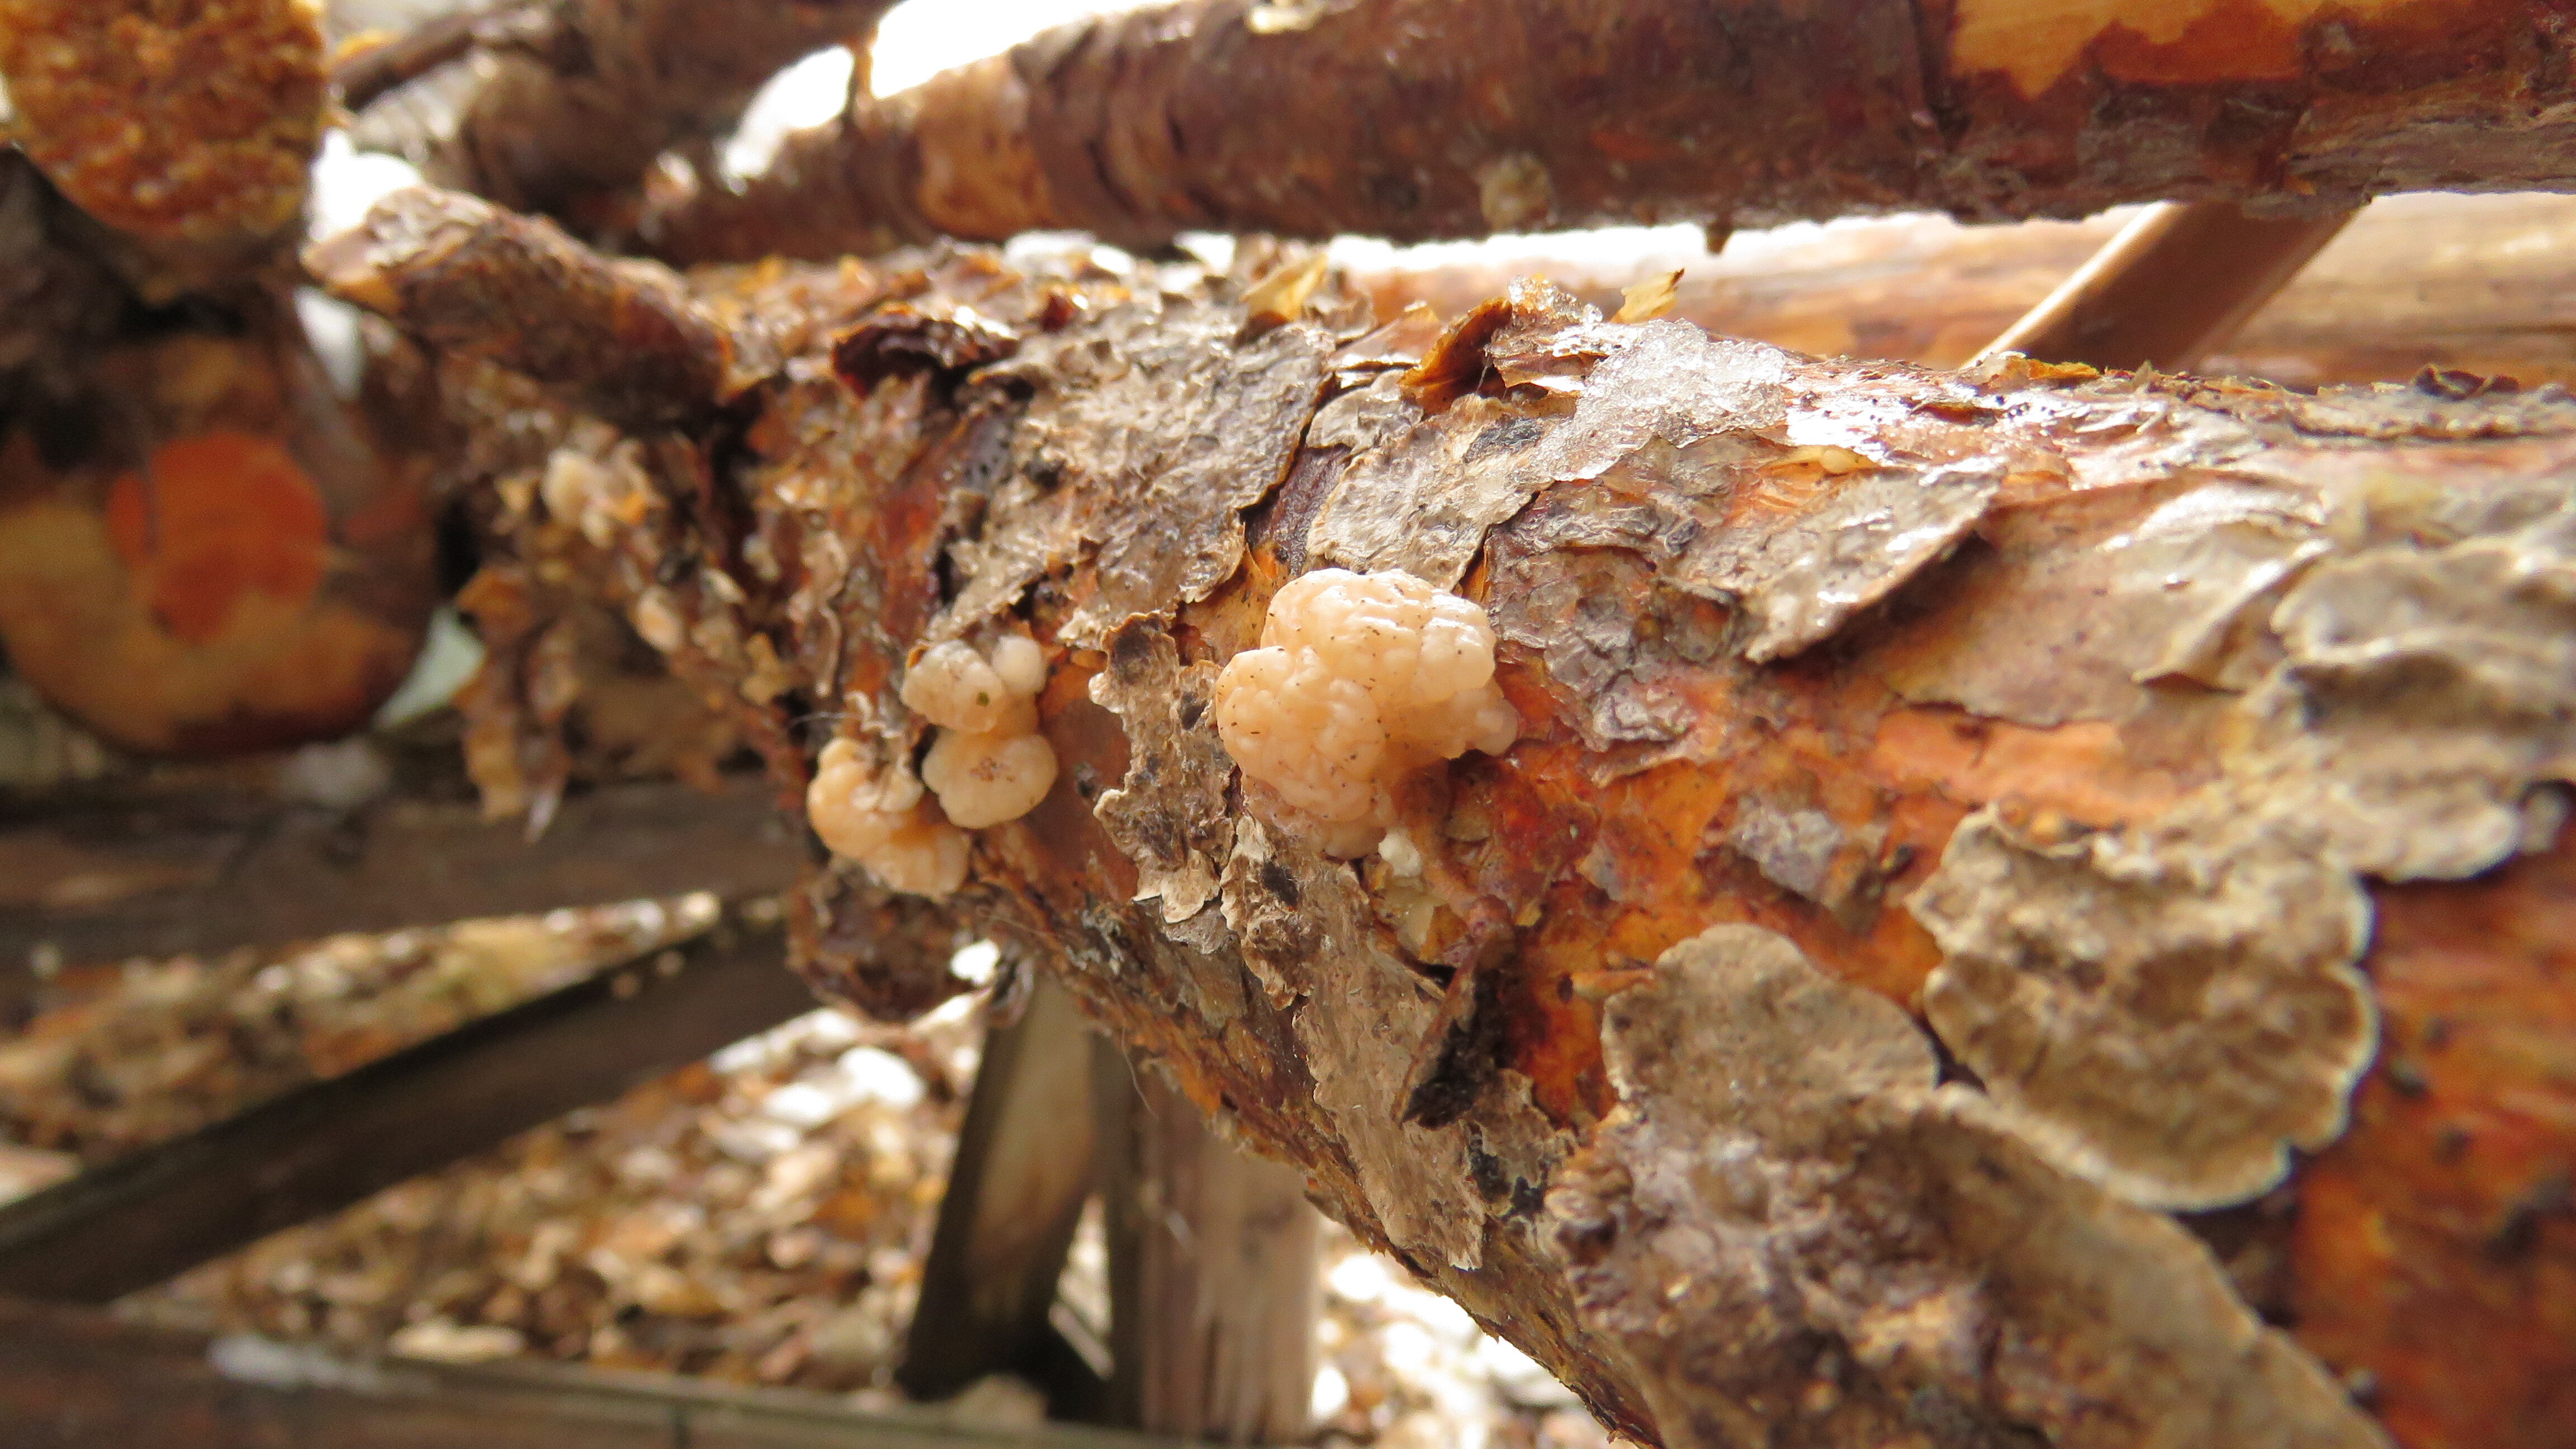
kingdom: Fungi
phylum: Basidiomycota
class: Agaricomycetes
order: Russulales
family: Stereaceae
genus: Stereum
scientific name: Stereum sanguinolentum
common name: Bleeding conifer crust
